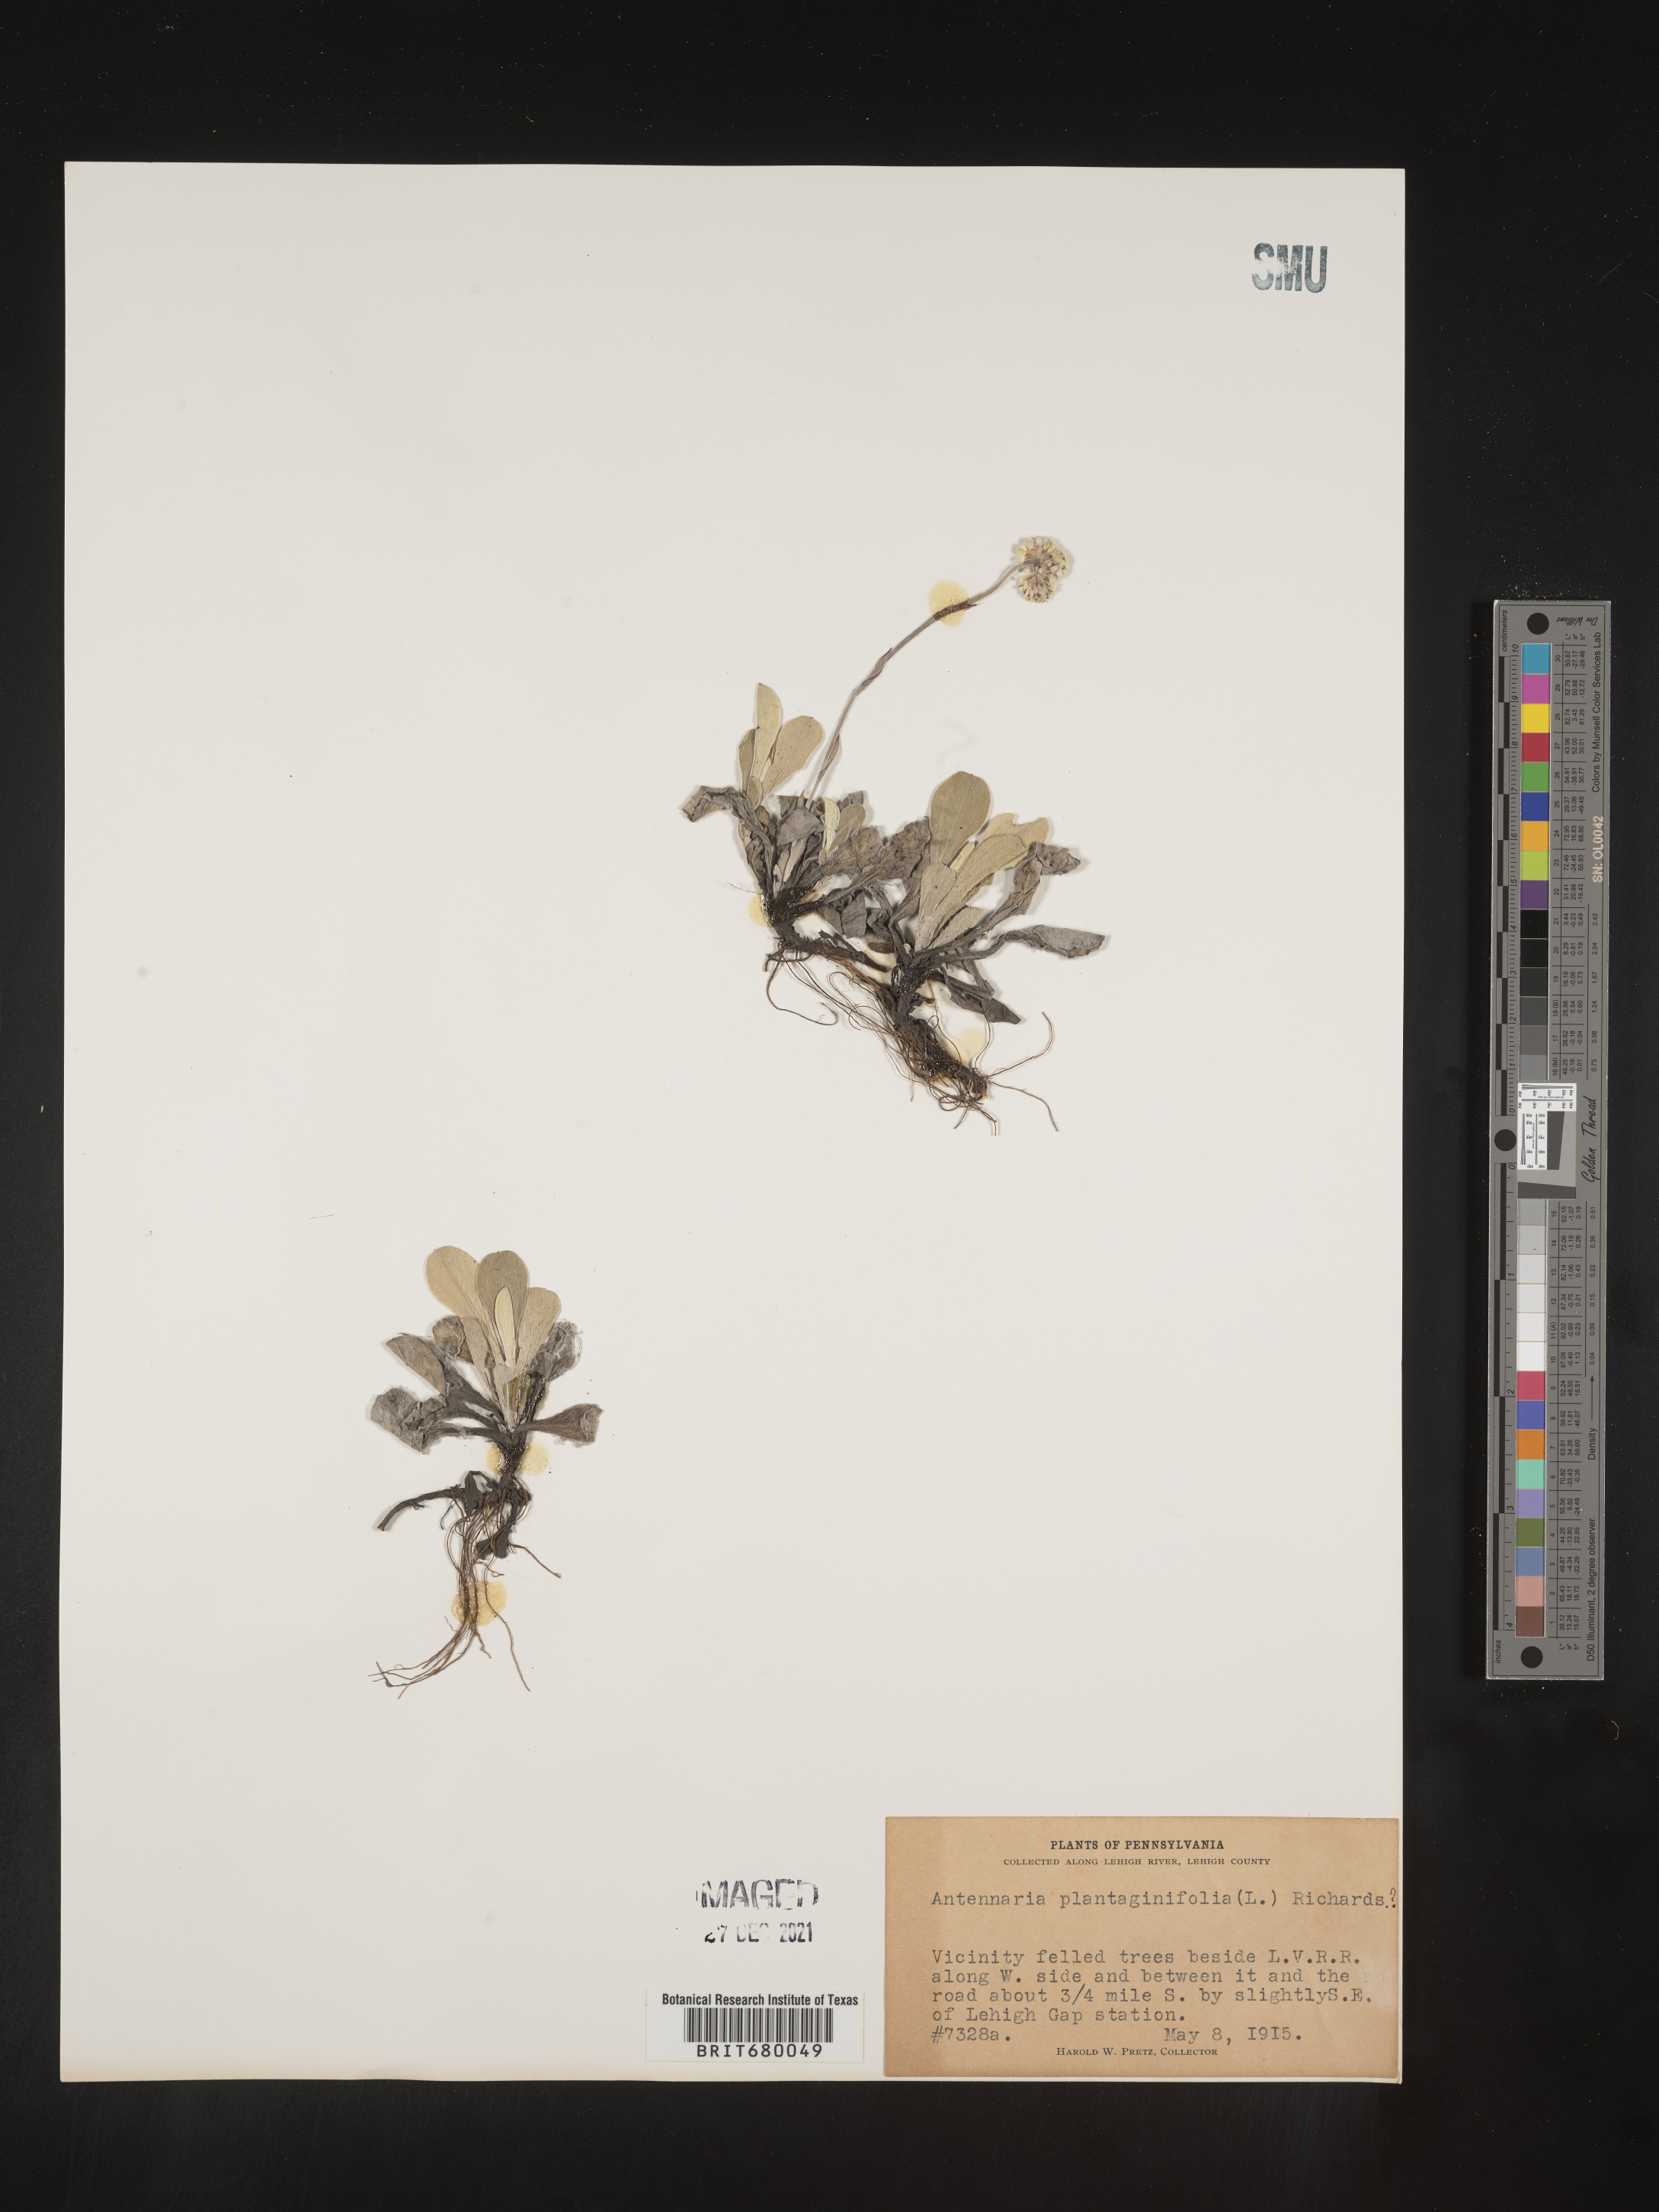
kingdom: Plantae
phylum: Tracheophyta
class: Magnoliopsida
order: Asterales
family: Asteraceae
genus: Antennaria
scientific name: Antennaria plantaginifolia
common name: Plantain-leaved pussytoes
